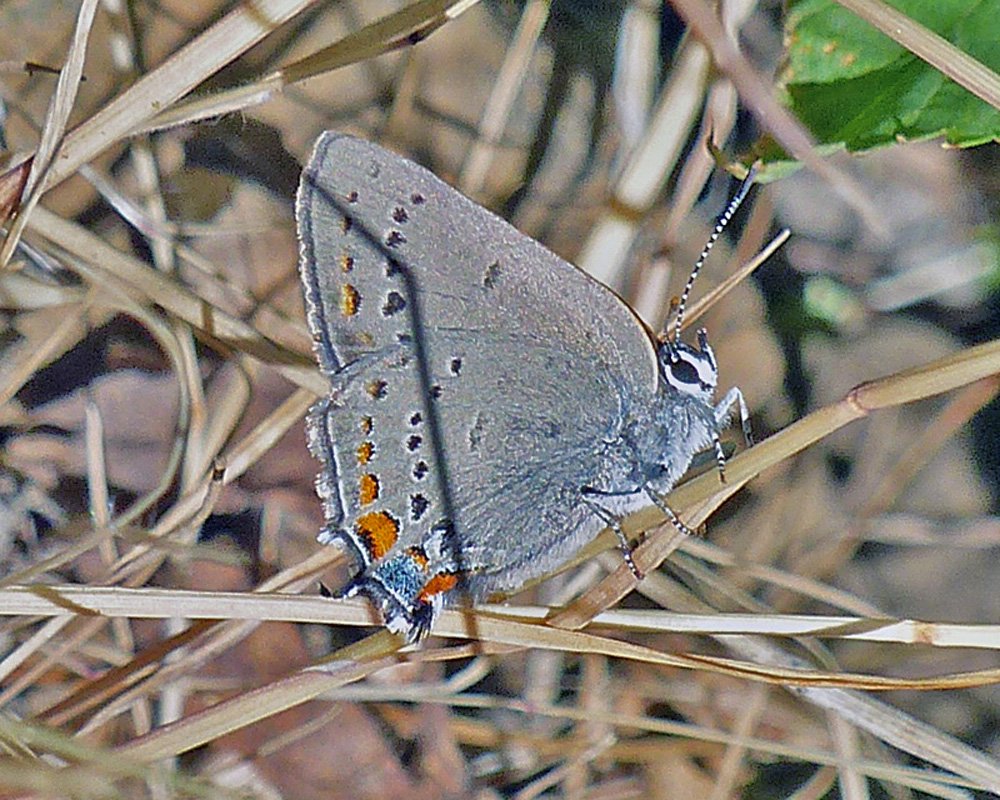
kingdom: Animalia
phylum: Arthropoda
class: Insecta
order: Lepidoptera
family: Lycaenidae
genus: Strymon
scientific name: Strymon acadica
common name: California Hairstreak
